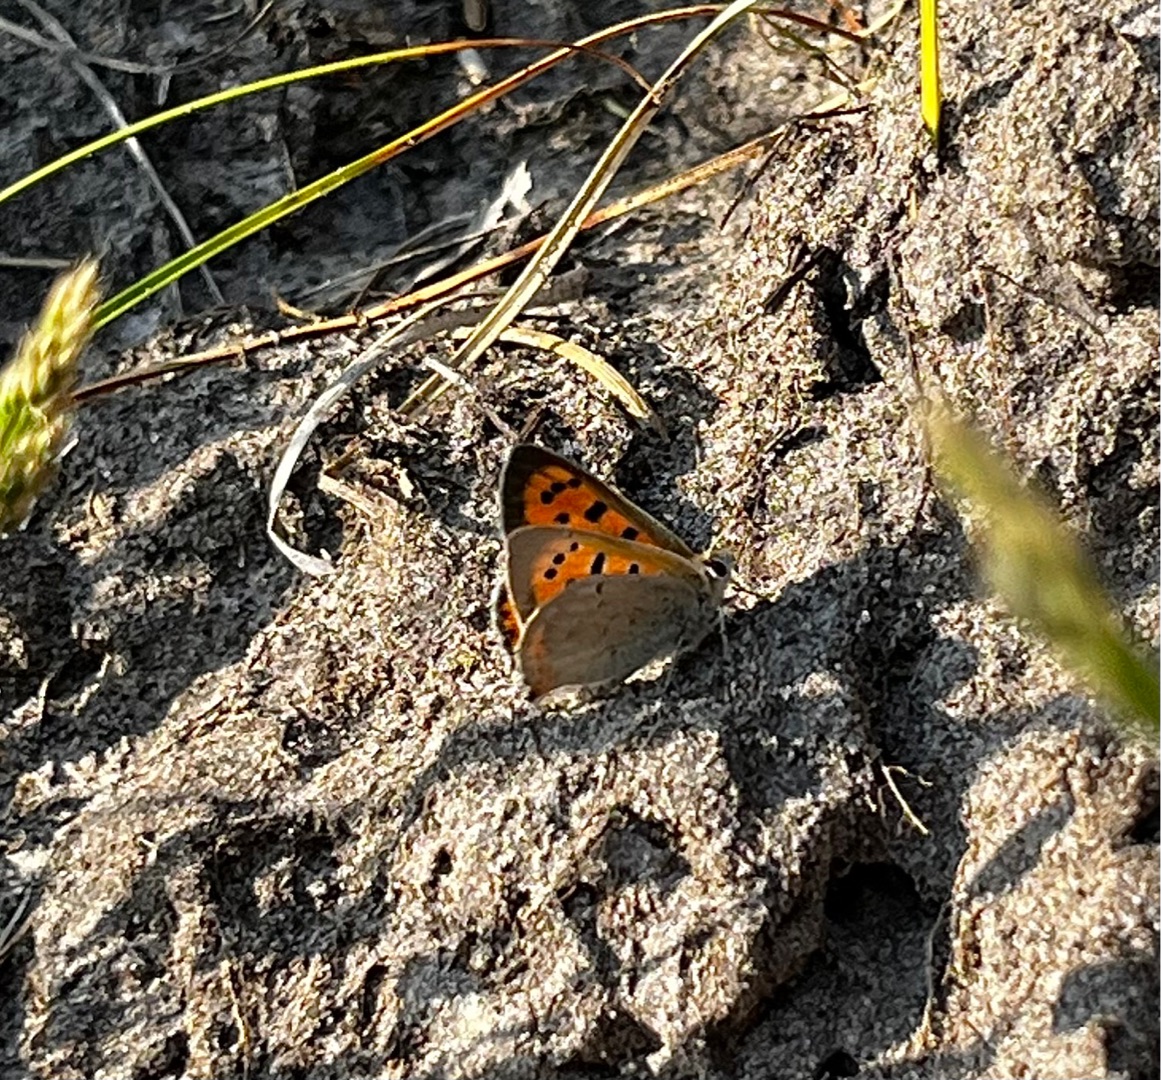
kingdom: Animalia
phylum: Arthropoda
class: Insecta
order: Lepidoptera
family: Lycaenidae
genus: Lycaena
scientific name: Lycaena phlaeas
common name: Lille ildfugl
